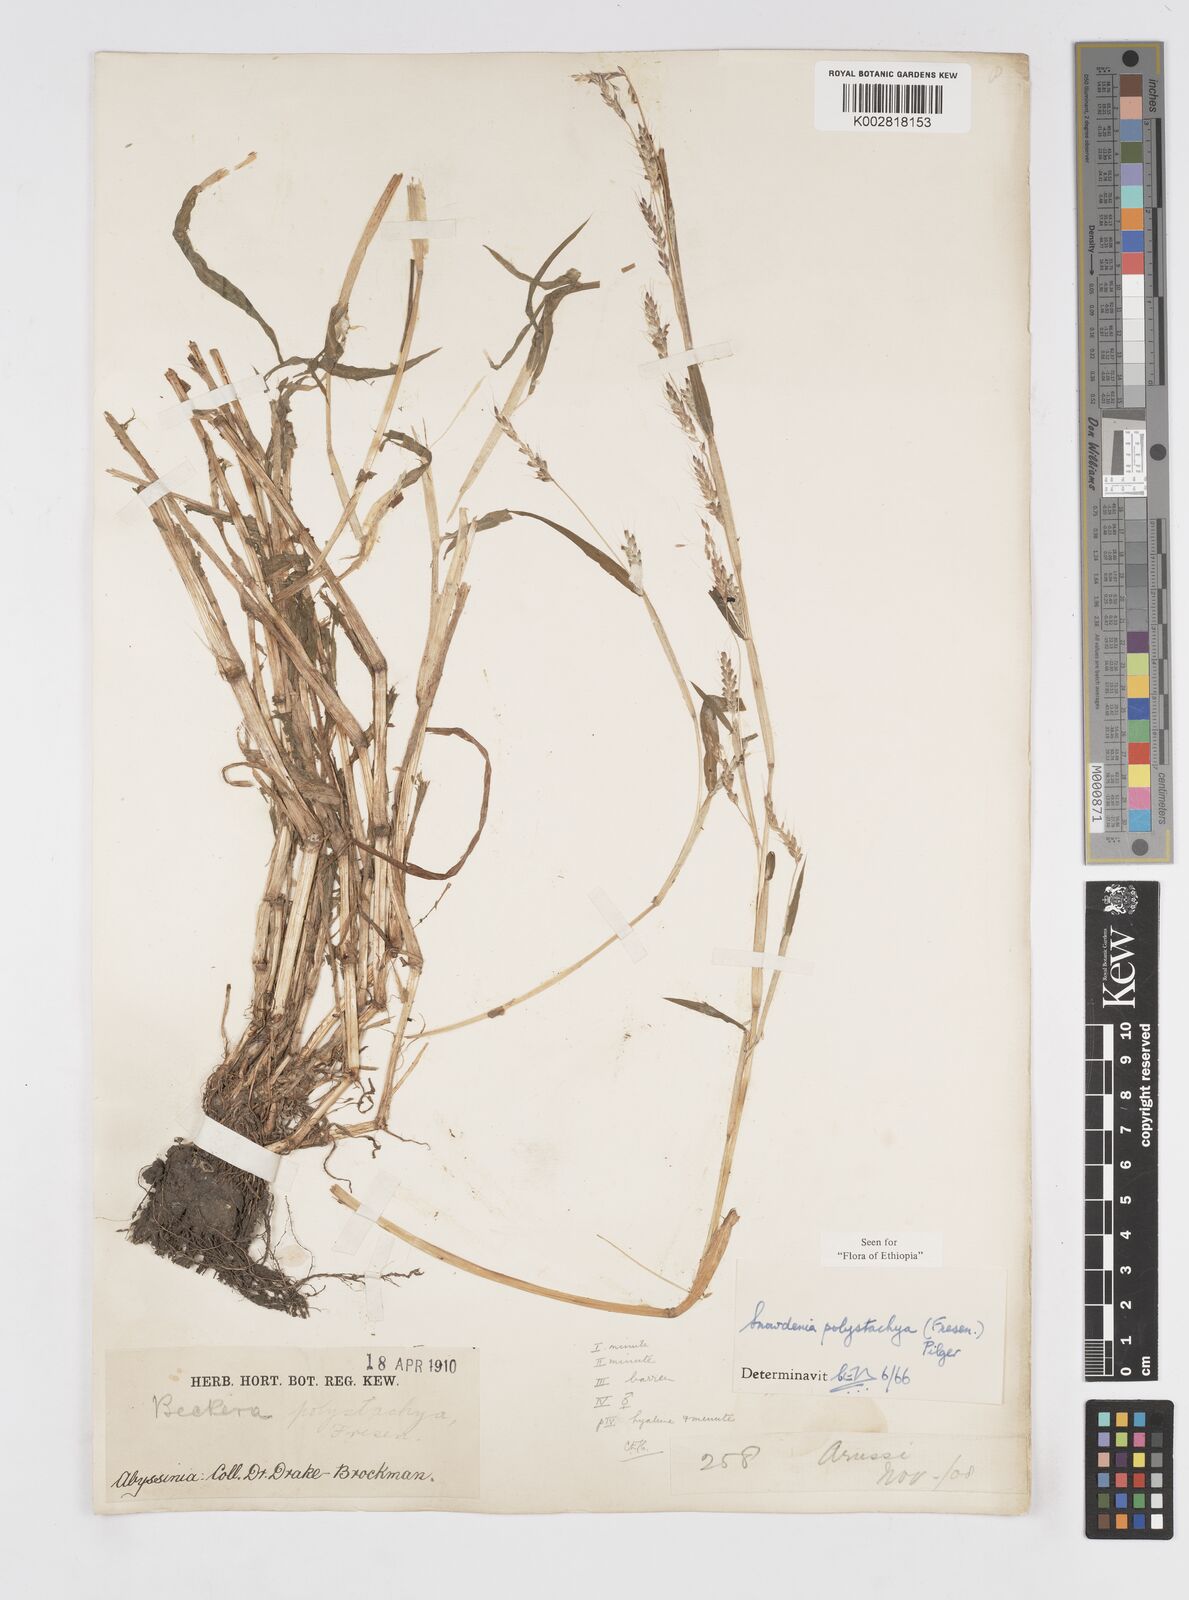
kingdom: Plantae
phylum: Tracheophyta
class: Liliopsida
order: Poales
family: Poaceae
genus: Snowdenia
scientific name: Snowdenia polystachya
